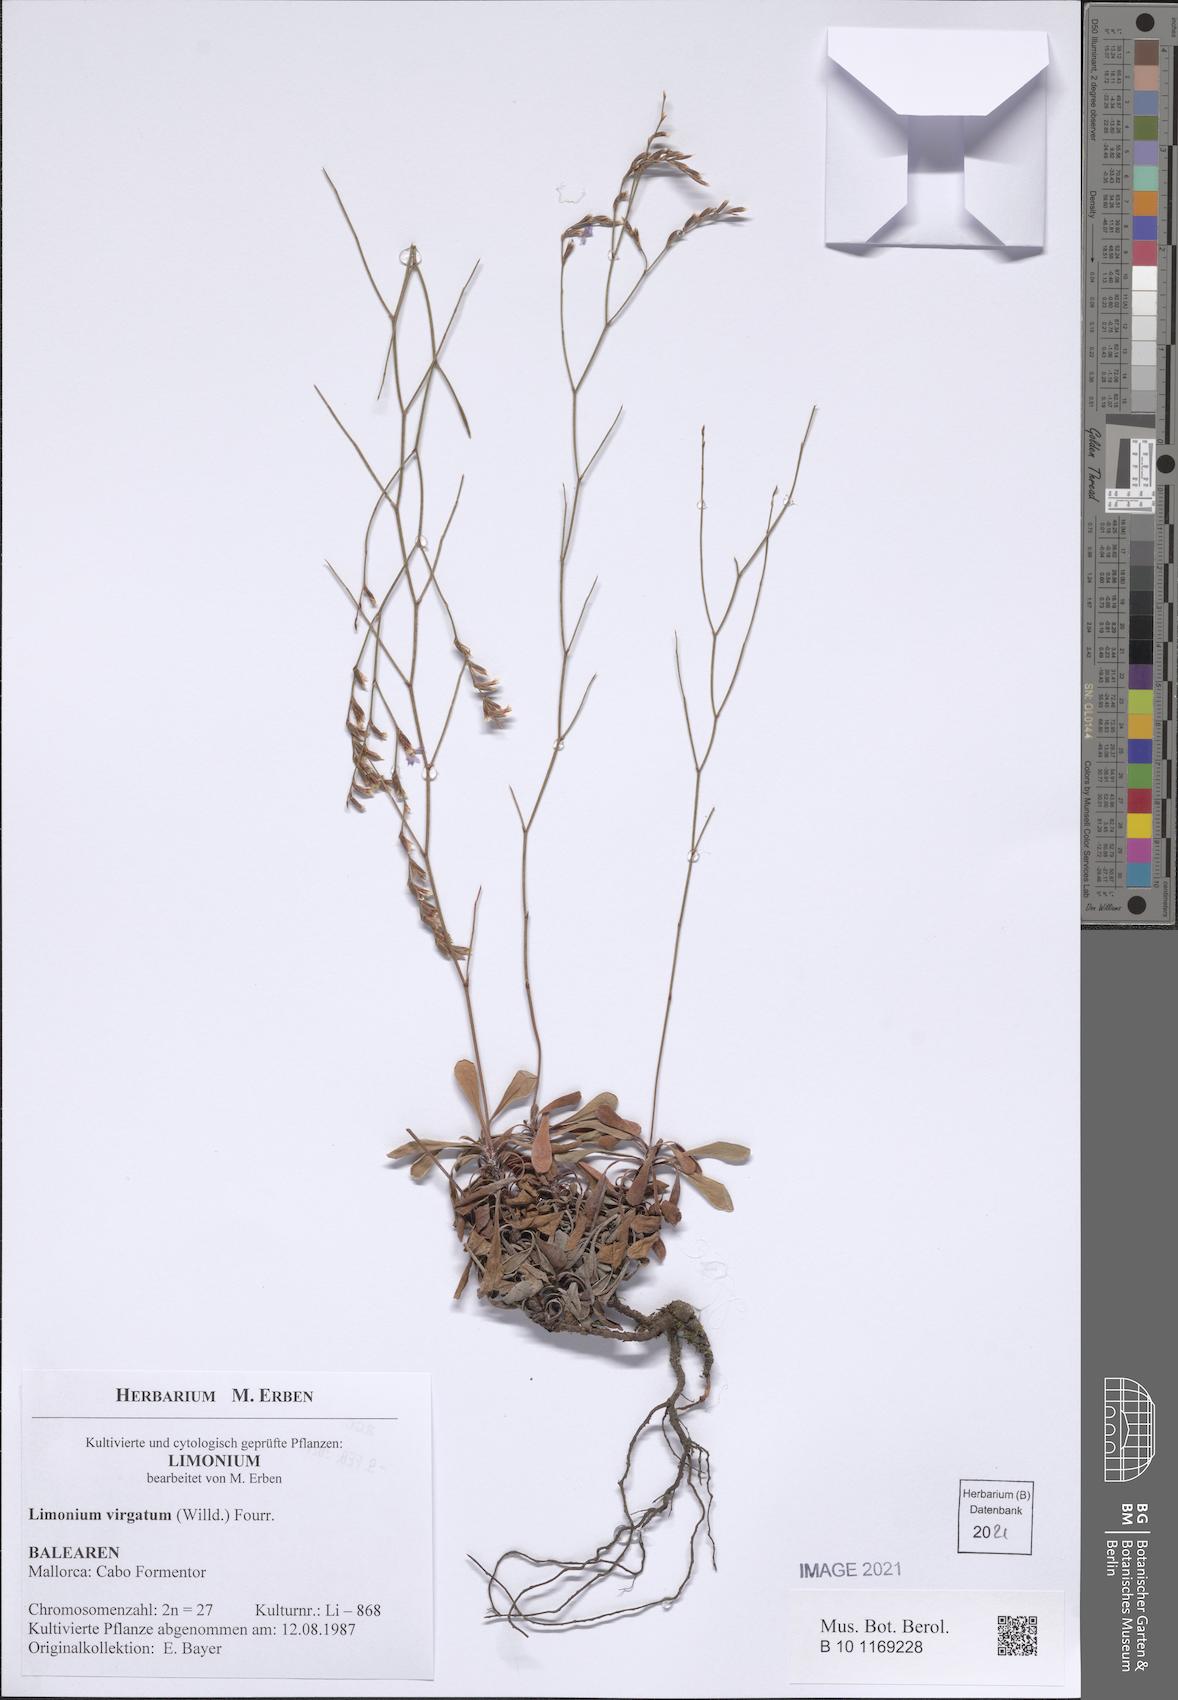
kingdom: Plantae
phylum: Tracheophyta
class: Magnoliopsida
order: Caryophyllales
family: Plumbaginaceae
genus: Limonium
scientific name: Limonium virgatum
